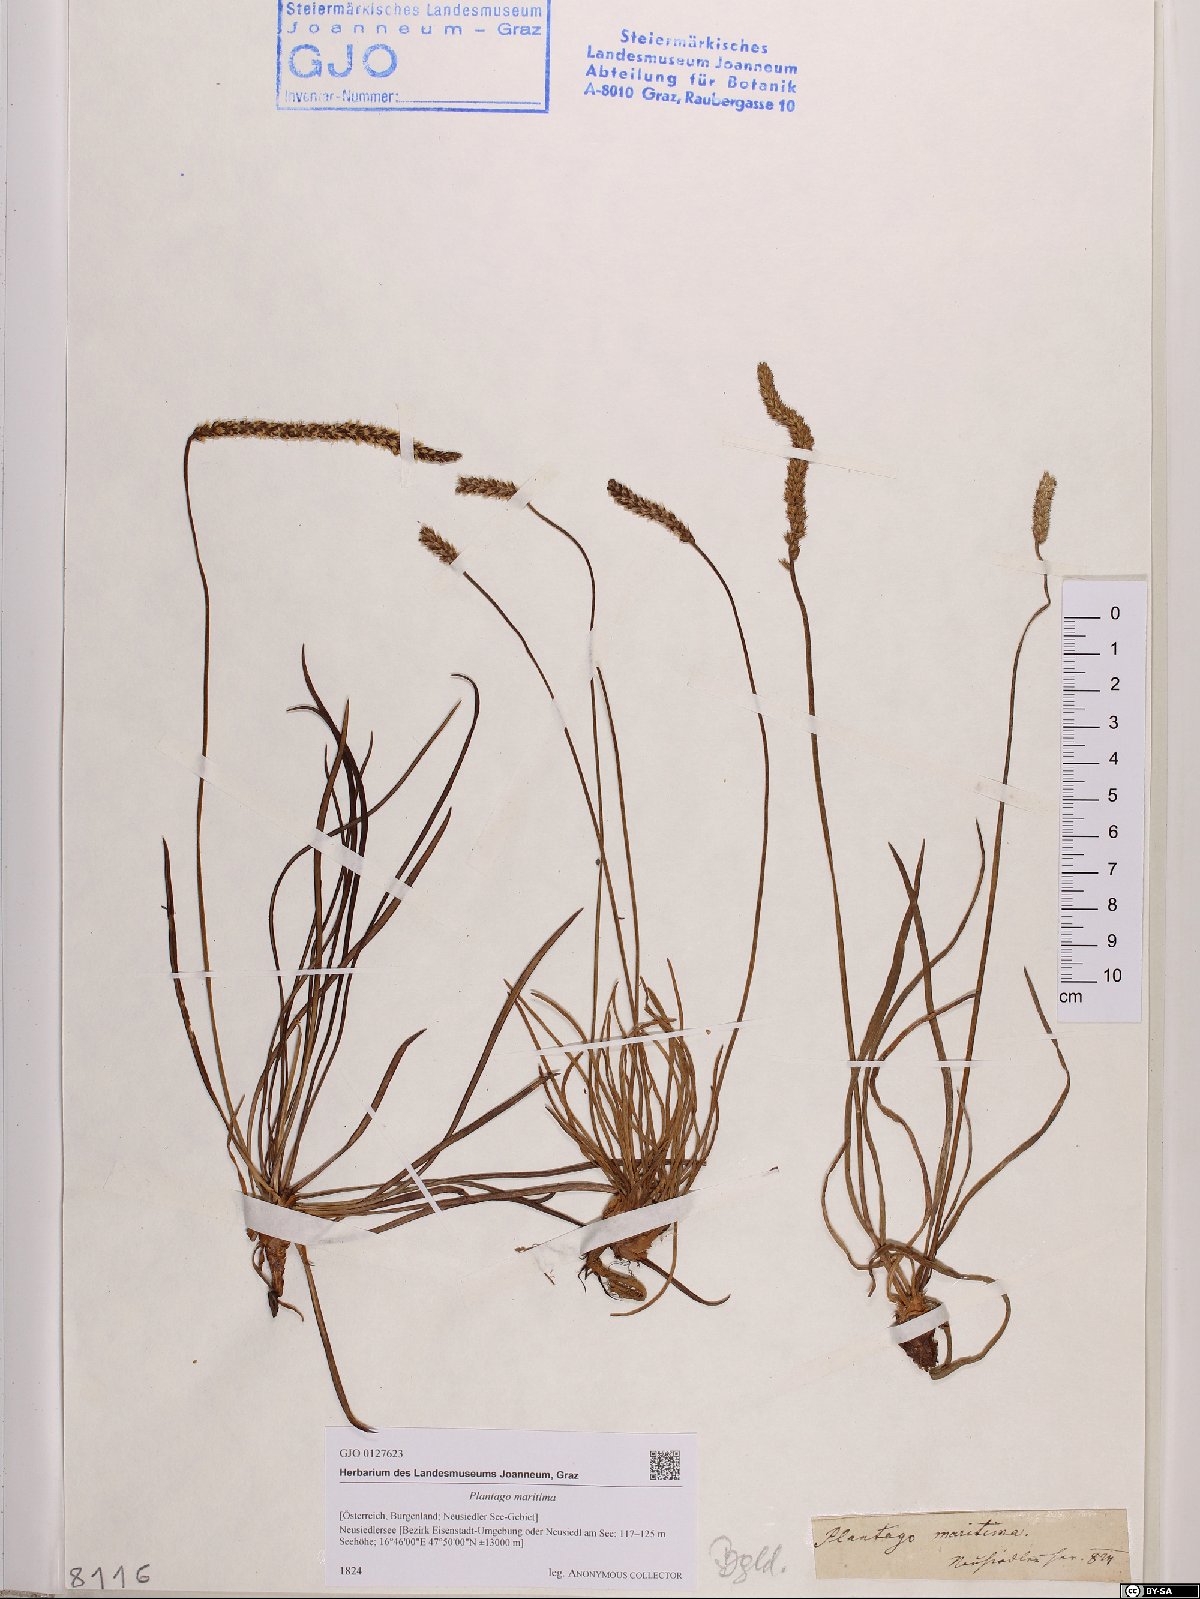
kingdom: Plantae
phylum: Tracheophyta
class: Magnoliopsida
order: Lamiales
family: Plantaginaceae
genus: Plantago
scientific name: Plantago maritima
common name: Sea plantain
